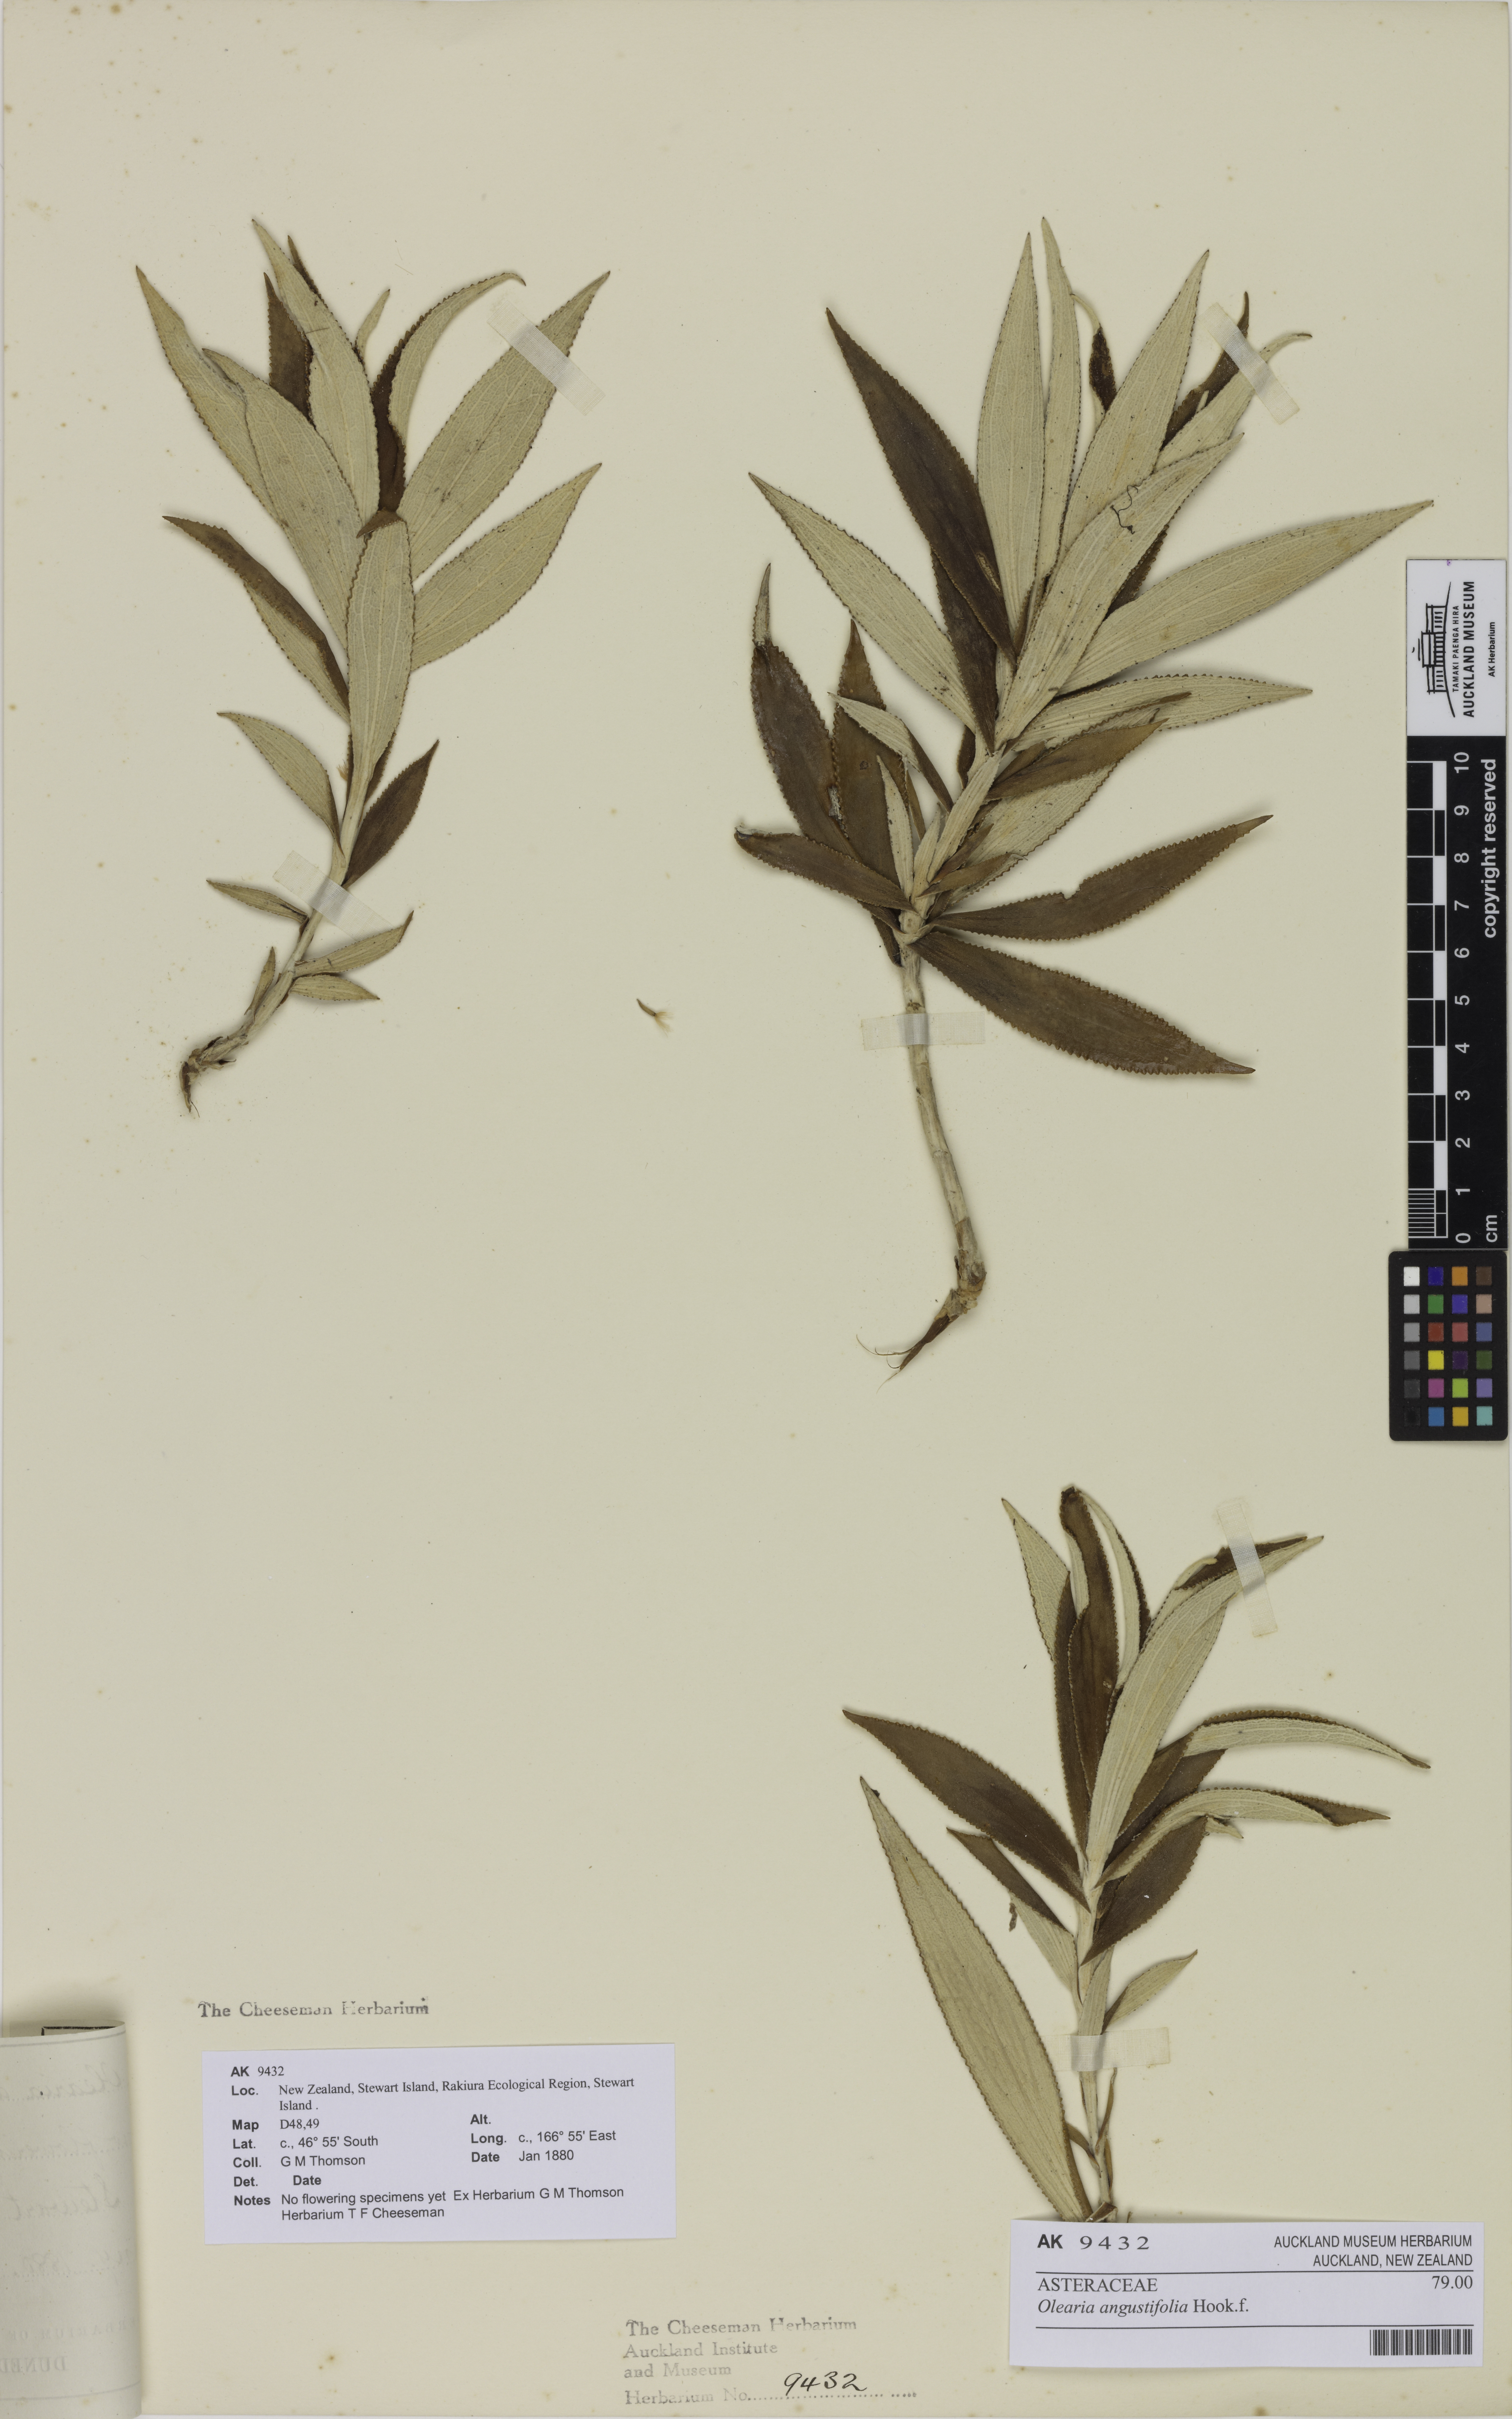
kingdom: Plantae
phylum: Tracheophyta
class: Magnoliopsida
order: Asterales
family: Asteraceae
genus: Macrolearia
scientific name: Macrolearia angustifolia
